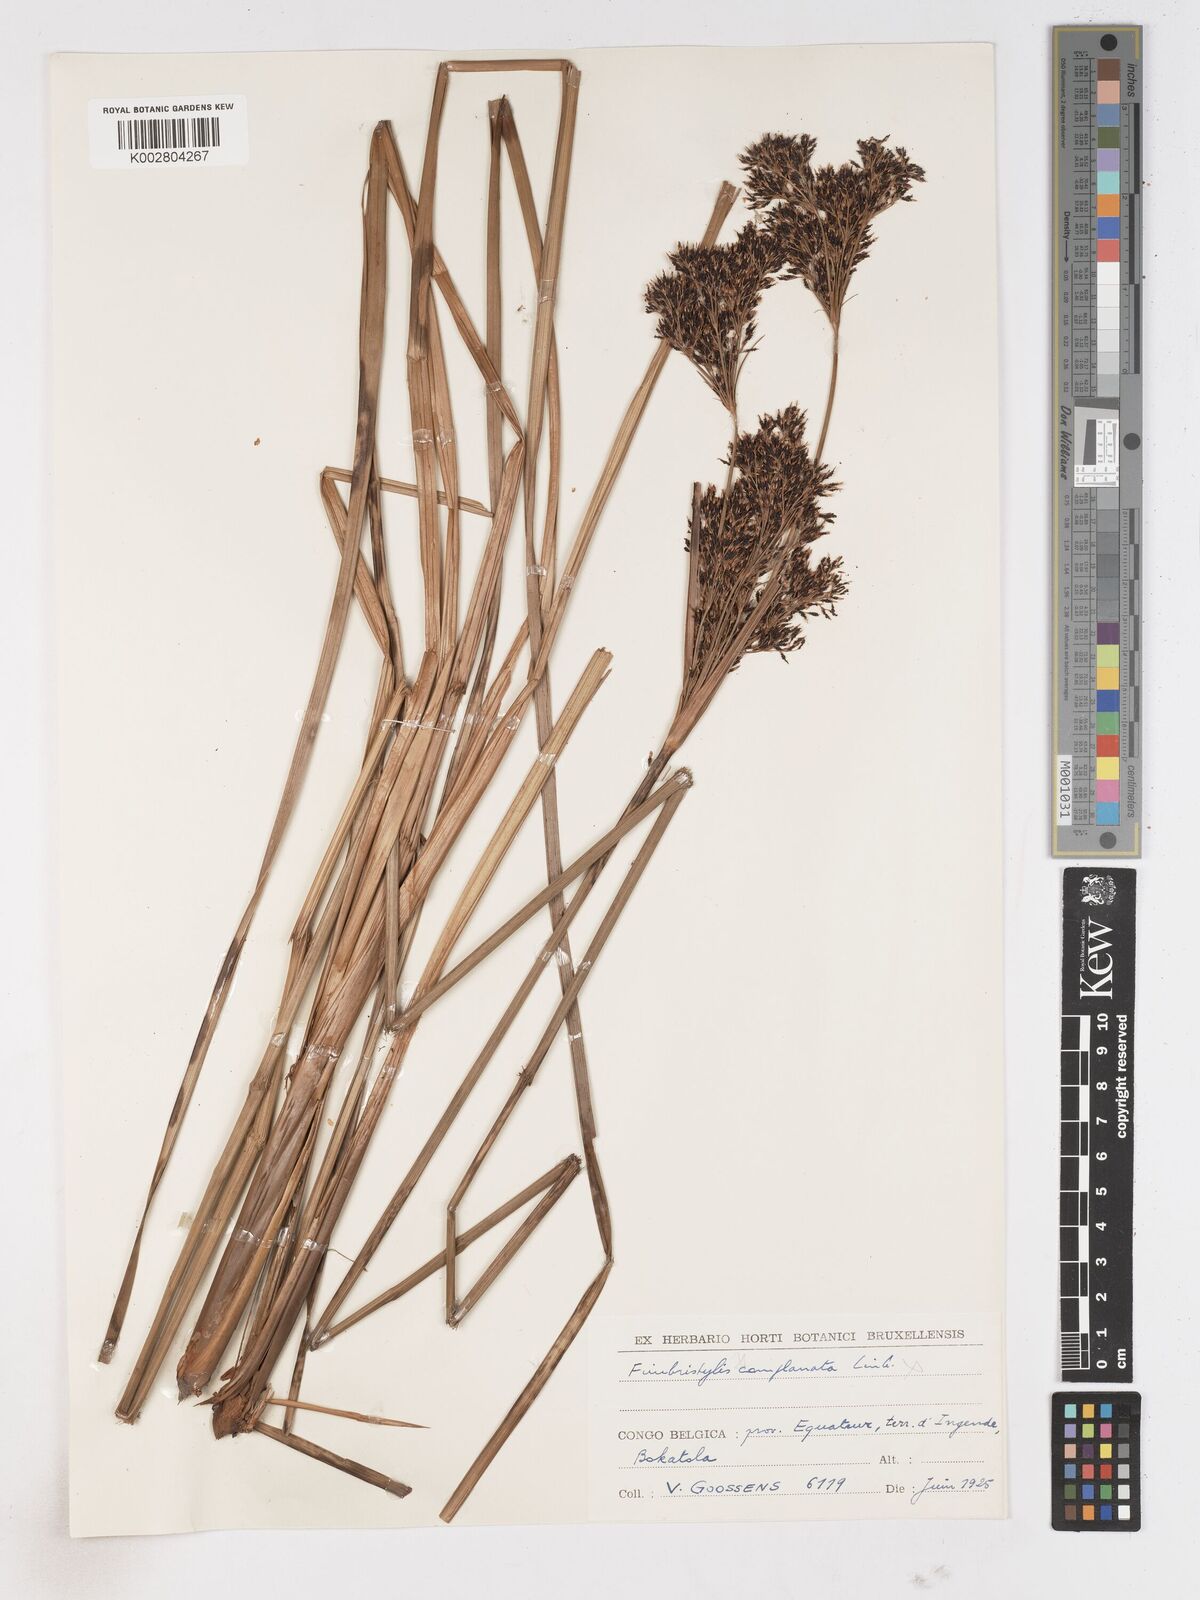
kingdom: Plantae
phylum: Tracheophyta
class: Liliopsida
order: Poales
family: Cyperaceae
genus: Fimbristylis
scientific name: Fimbristylis dura
